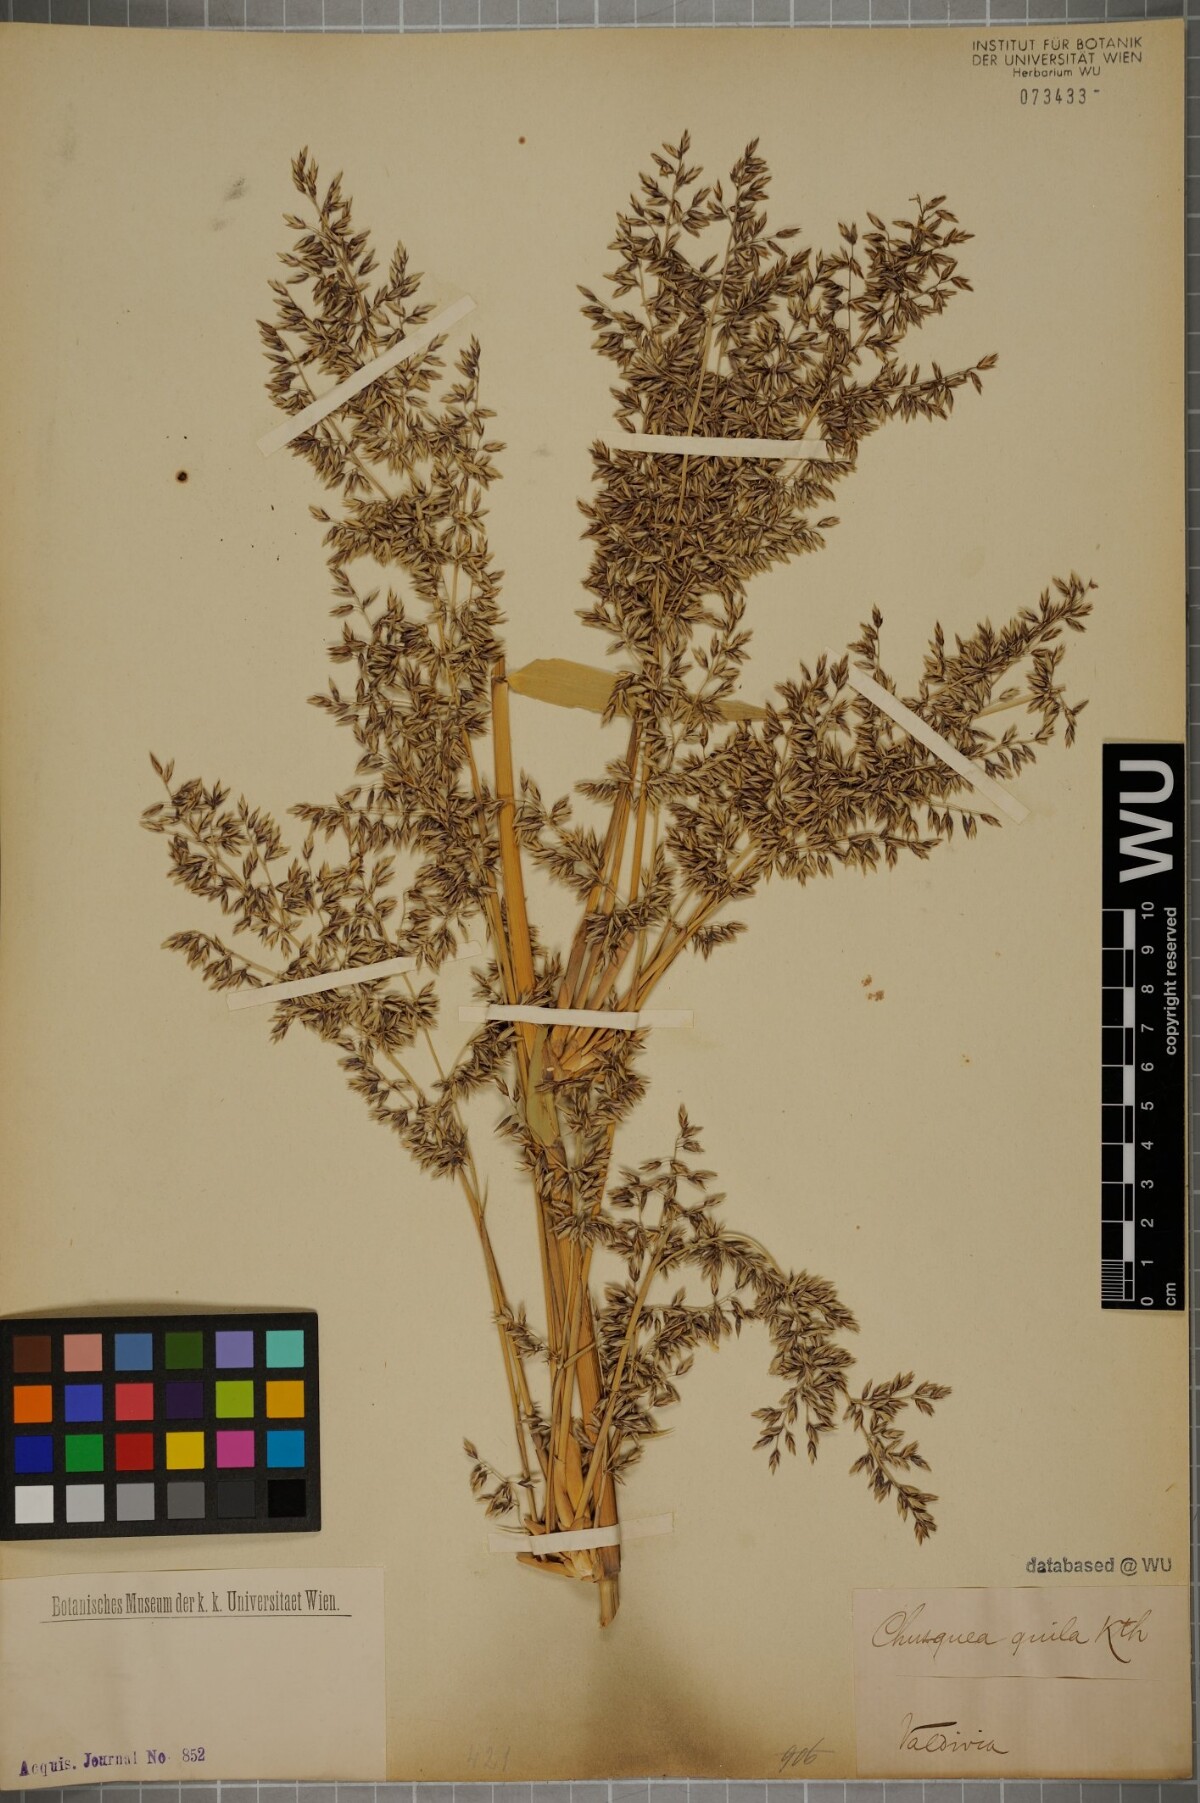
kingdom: Plantae
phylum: Tracheophyta
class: Liliopsida
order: Poales
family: Poaceae
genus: Chusquea
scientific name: Chusquea quila
